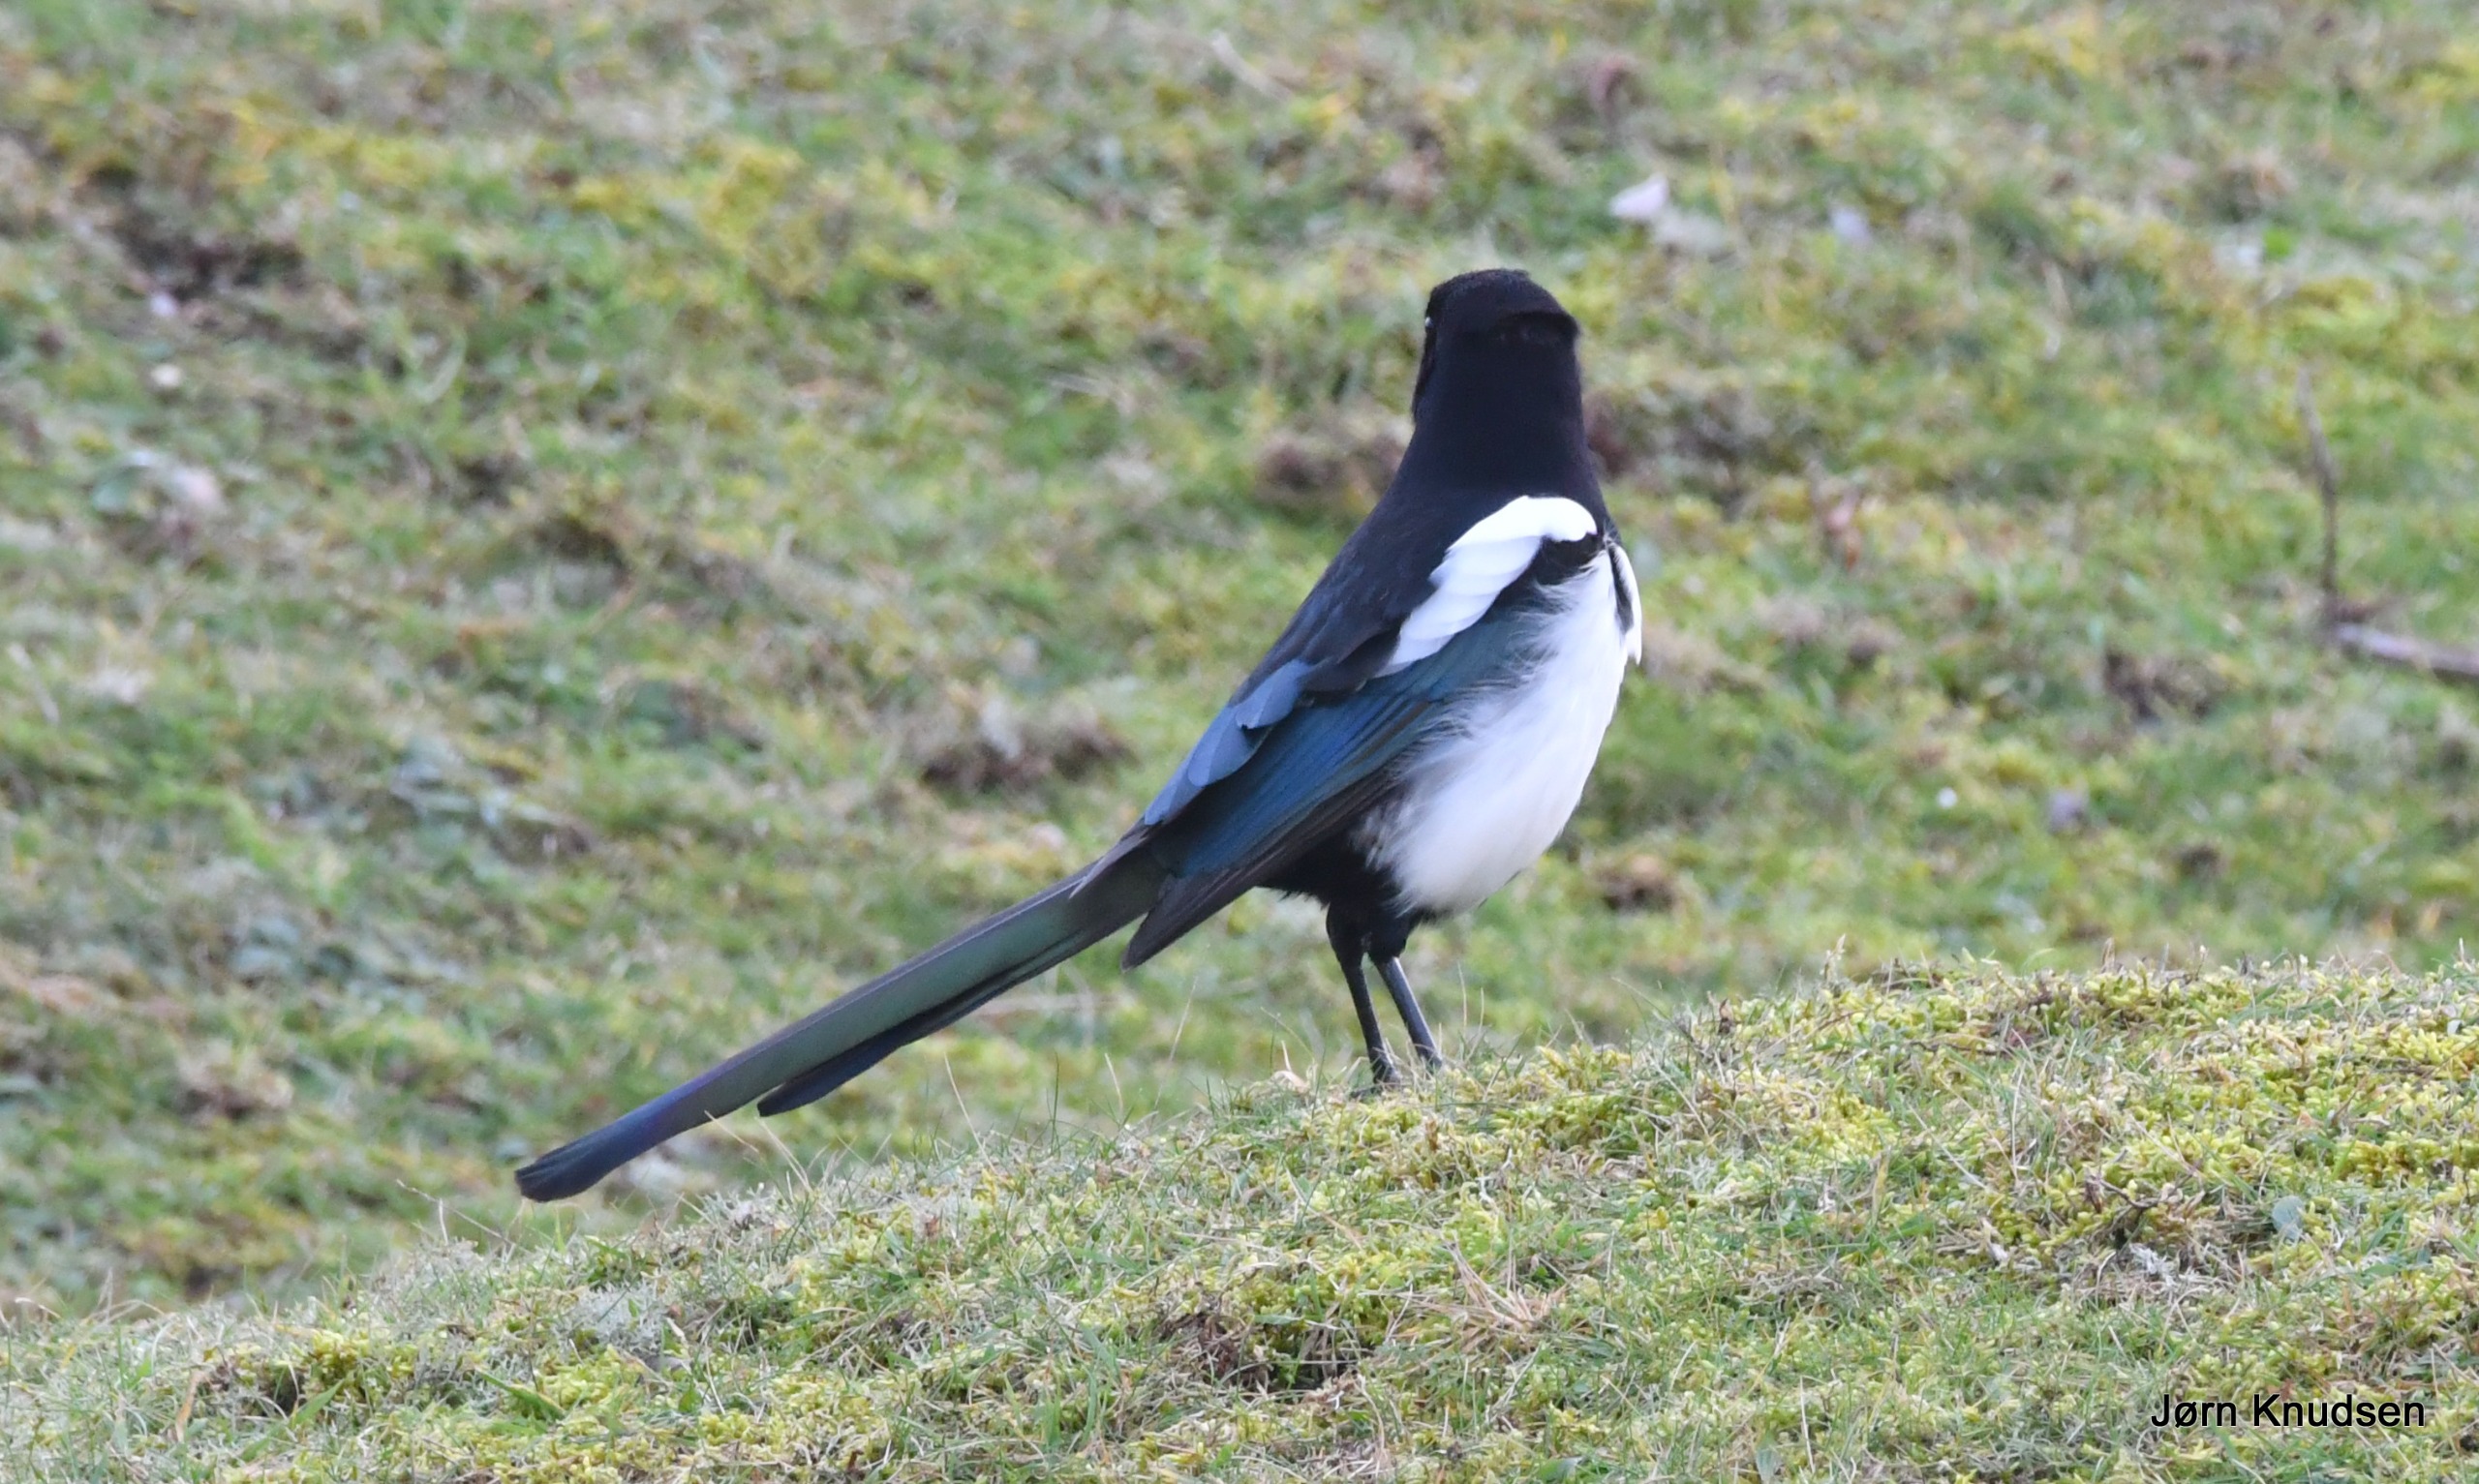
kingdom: Animalia
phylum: Chordata
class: Aves
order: Passeriformes
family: Corvidae
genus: Pica
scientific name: Pica pica
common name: Husskade
